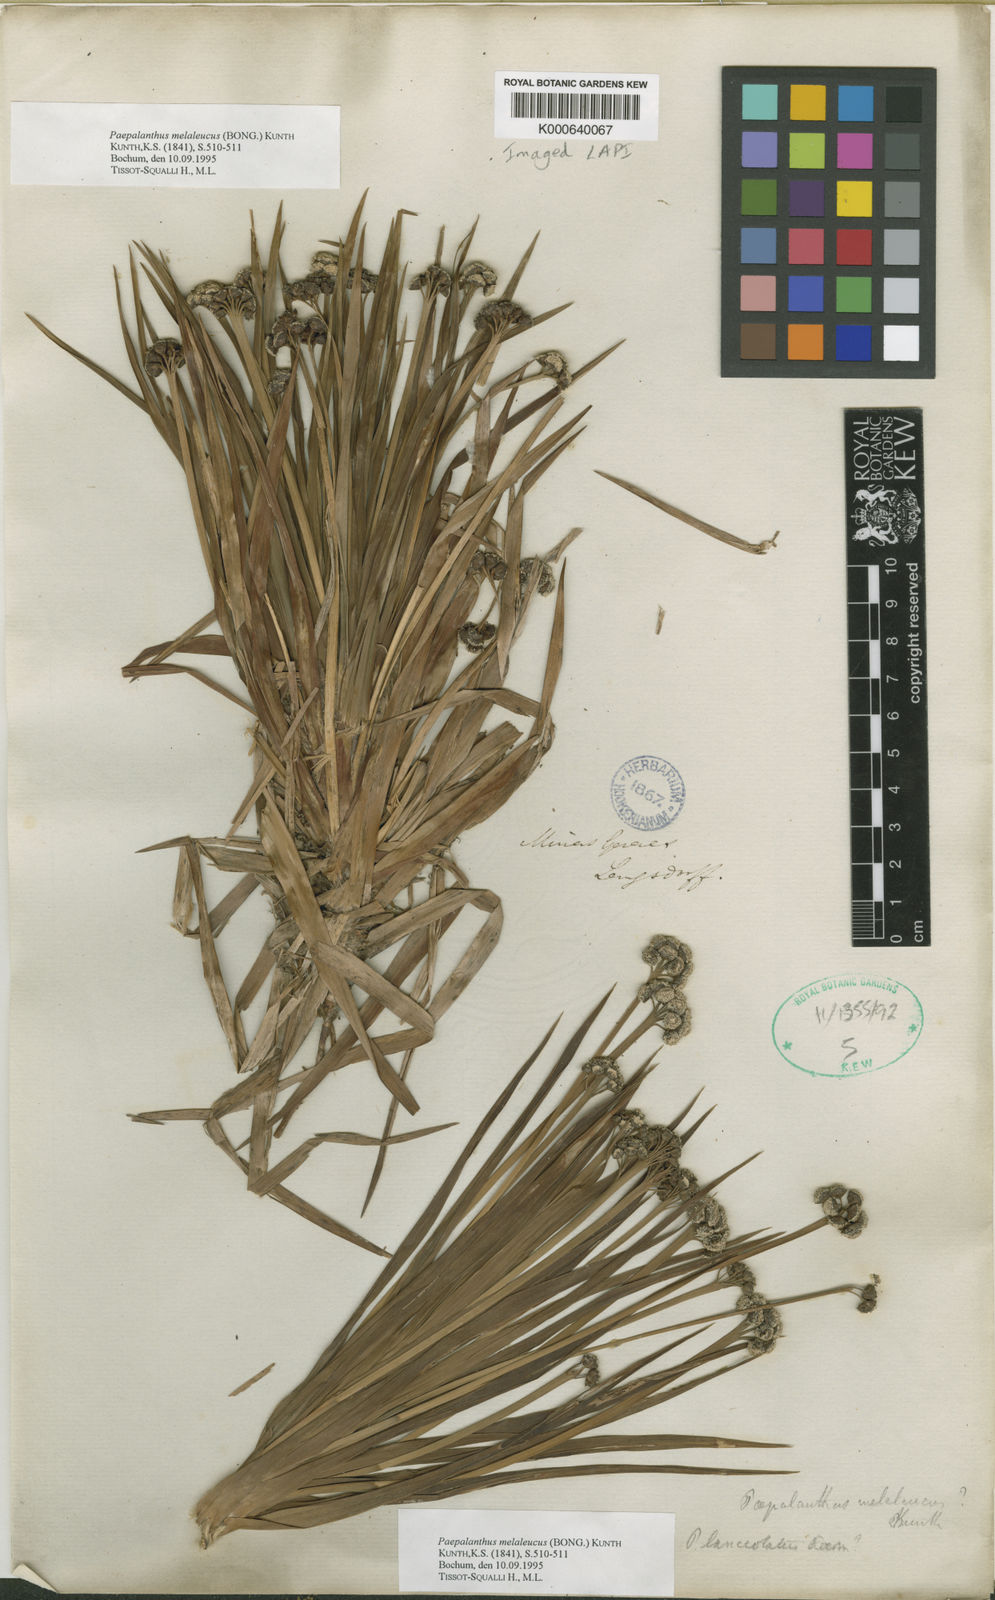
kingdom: Plantae
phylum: Tracheophyta
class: Liliopsida
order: Poales
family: Eriocaulaceae
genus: Paepalanthus
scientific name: Paepalanthus
